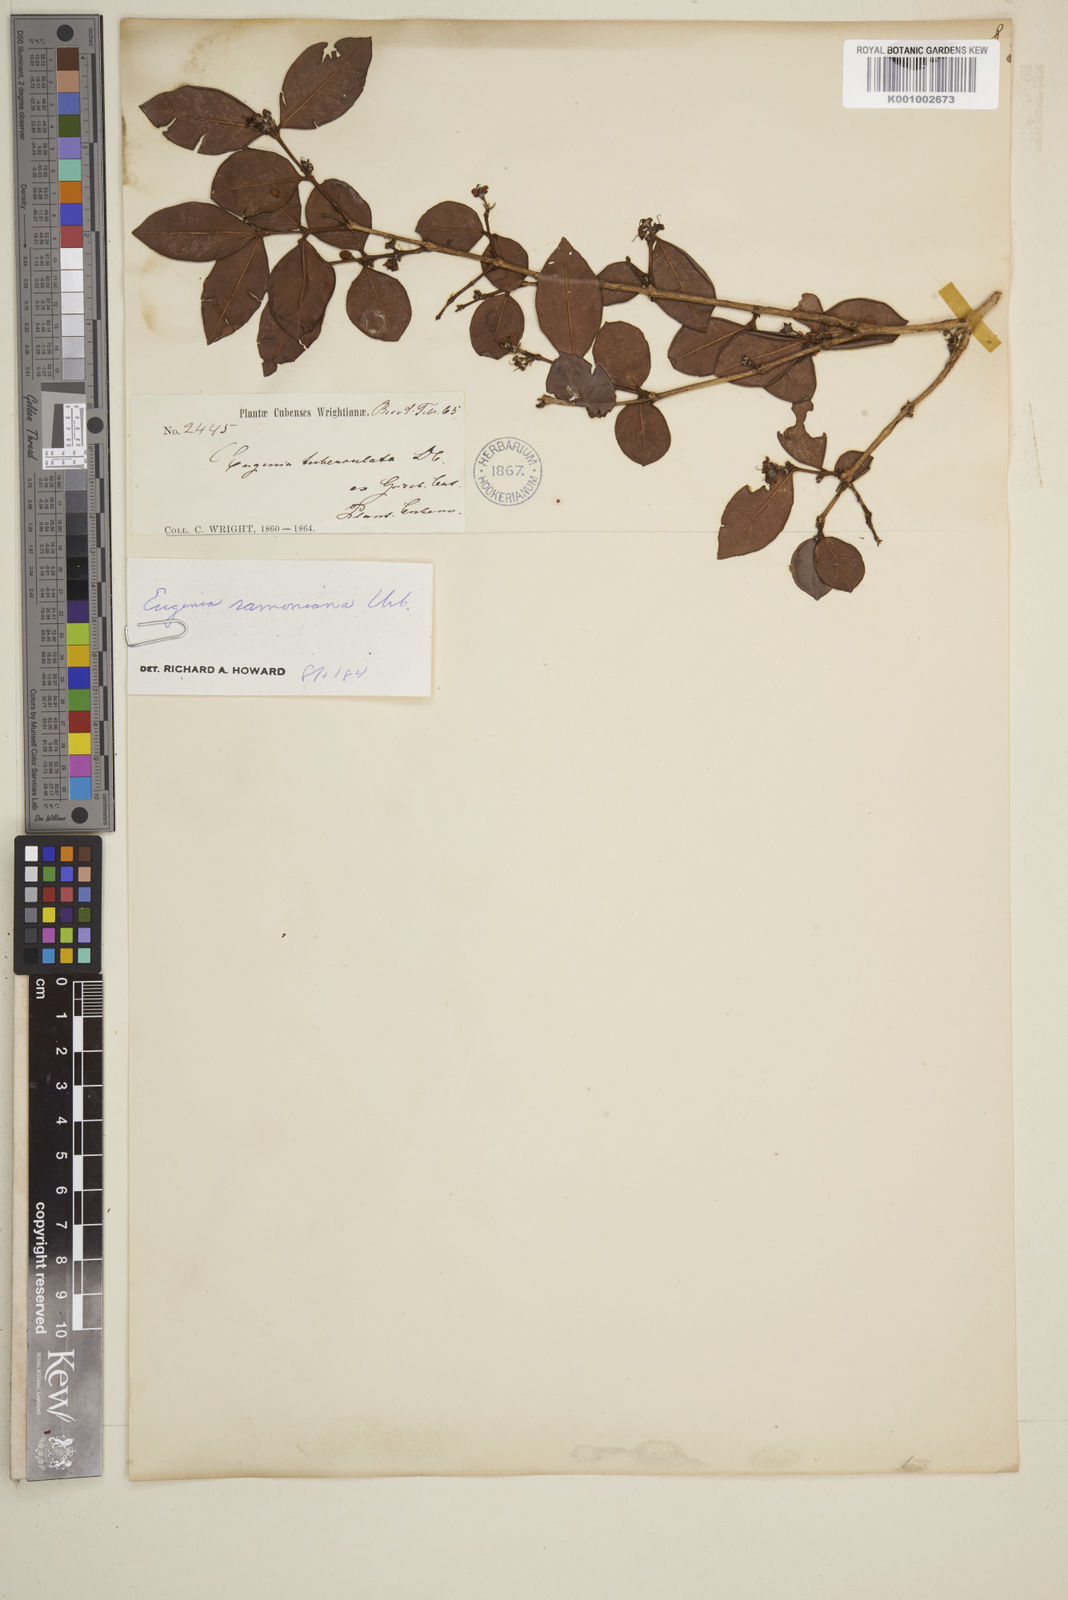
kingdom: Plantae
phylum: Tracheophyta
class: Magnoliopsida
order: Myrtales
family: Myrtaceae
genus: Eugenia
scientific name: Eugenia tuberculata
